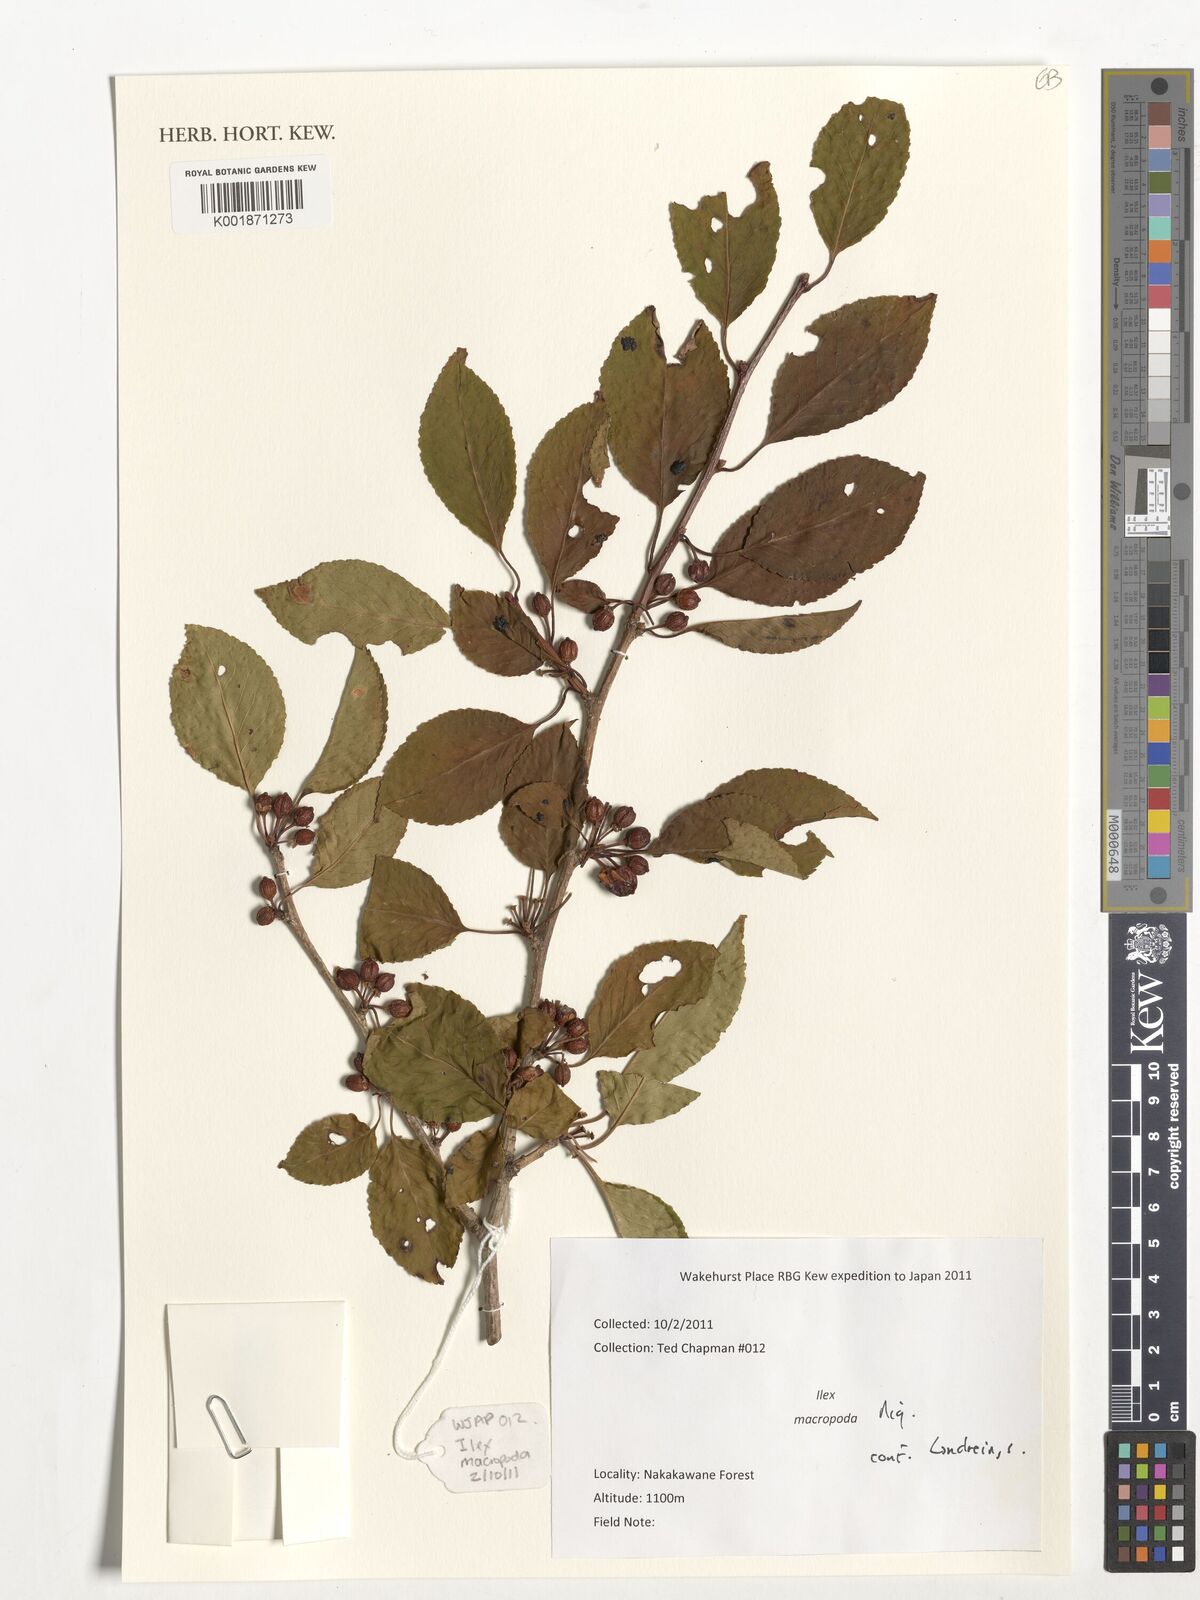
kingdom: Plantae
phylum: Tracheophyta
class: Magnoliopsida
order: Aquifoliales
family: Aquifoliaceae
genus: Ilex
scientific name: Ilex macropoda
